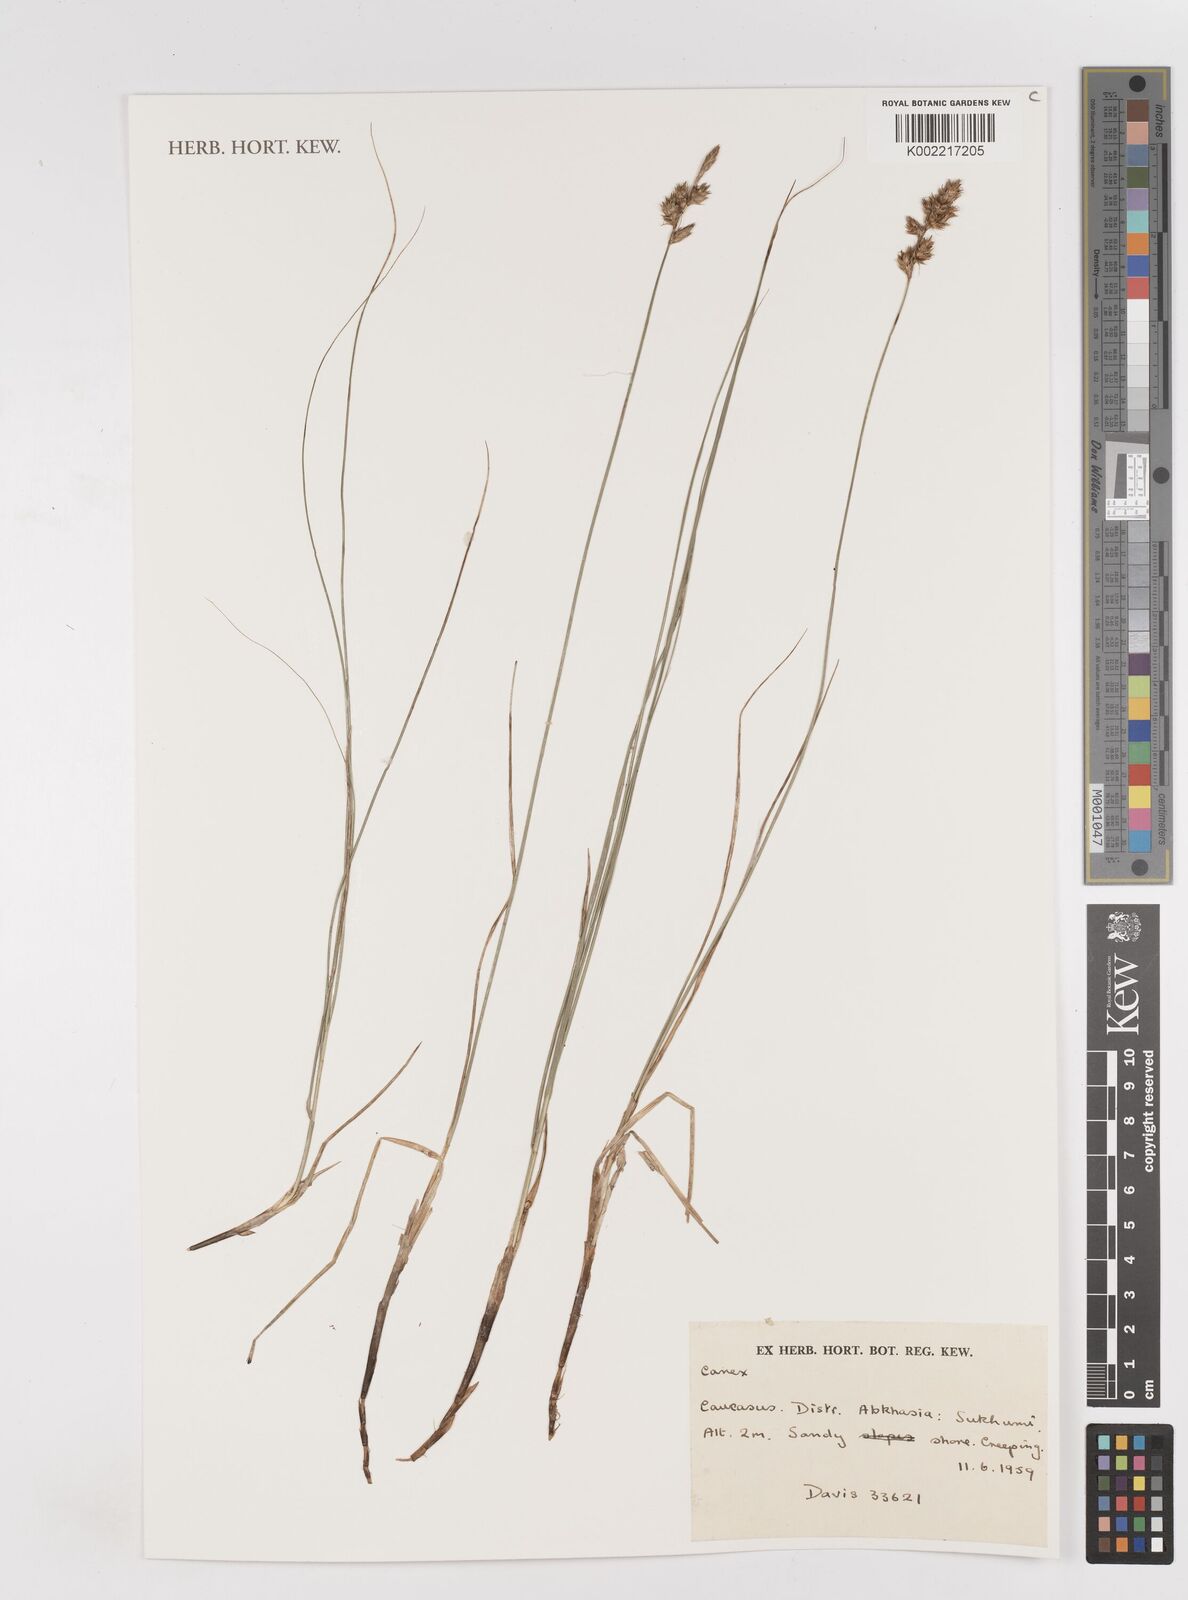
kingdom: Plantae
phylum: Tracheophyta
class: Liliopsida
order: Poales
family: Cyperaceae
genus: Carex
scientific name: Carex
